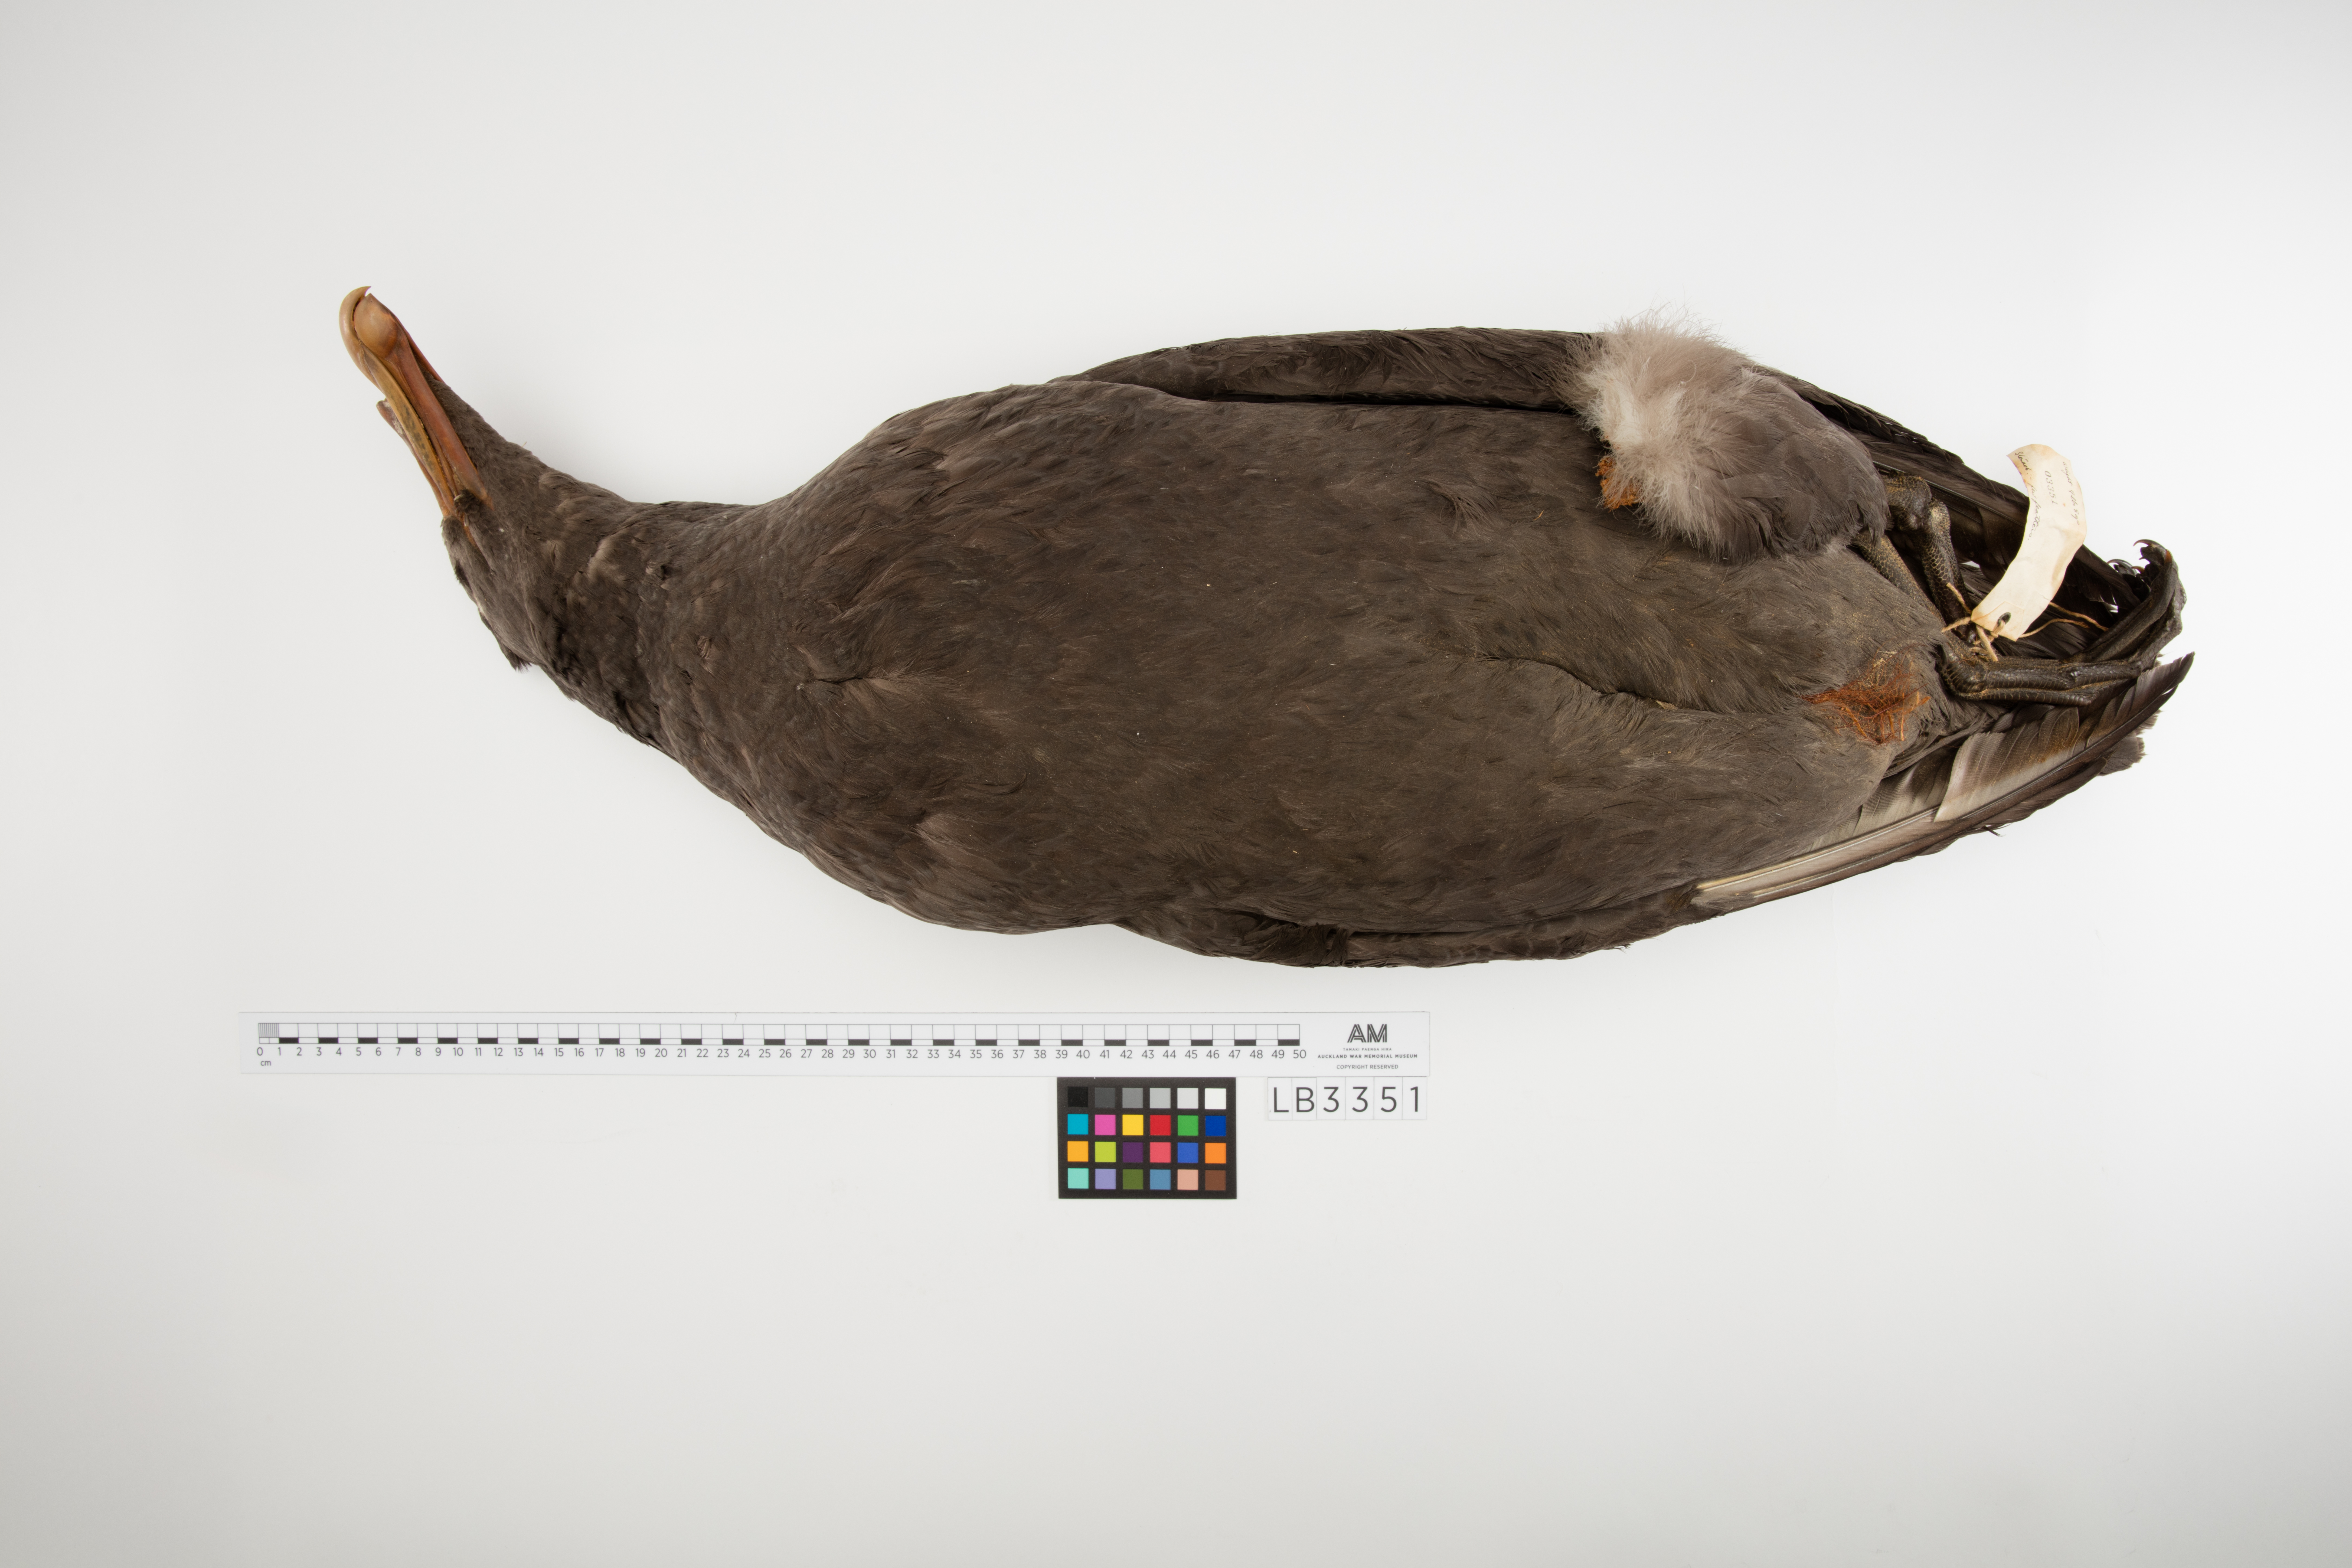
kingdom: Animalia
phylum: Chordata
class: Aves
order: Procellariiformes
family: Procellariidae
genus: Macronectes
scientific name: Macronectes giganteus
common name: Southern giant petrel
